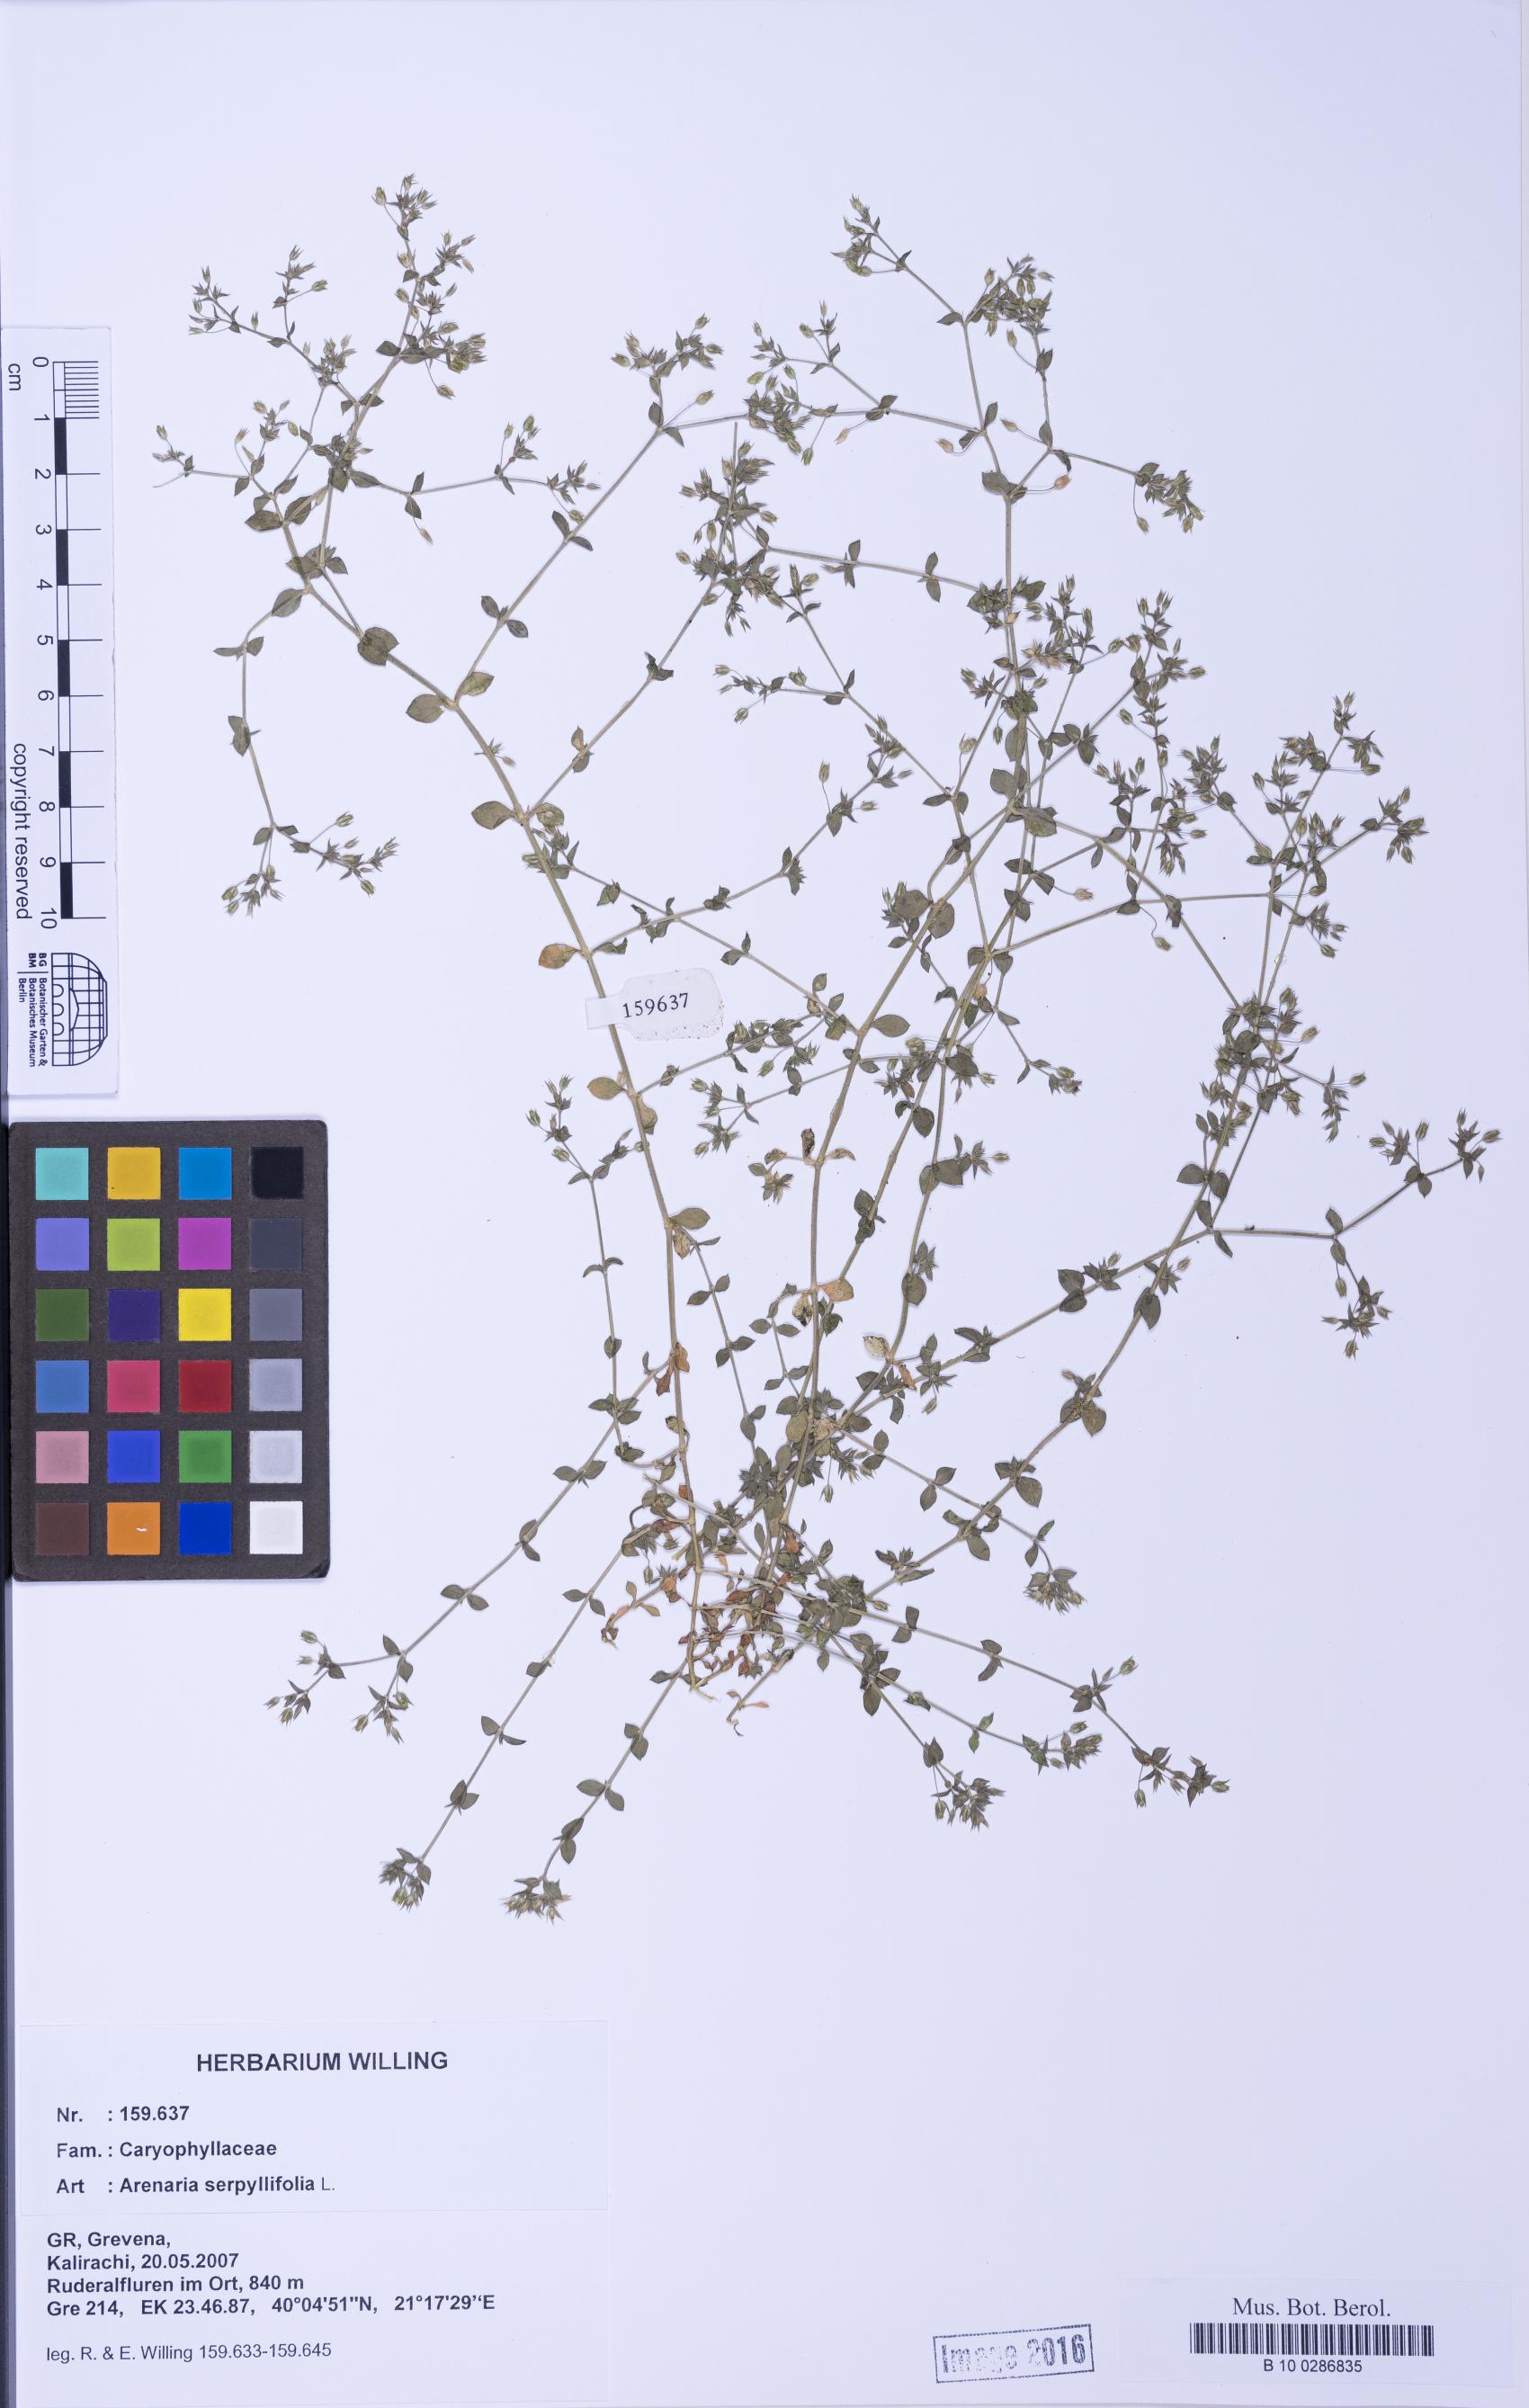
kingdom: Plantae
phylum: Tracheophyta
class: Magnoliopsida
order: Caryophyllales
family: Caryophyllaceae
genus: Arenaria
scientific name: Arenaria serpyllifolia
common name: Thyme-leaved sandwort
